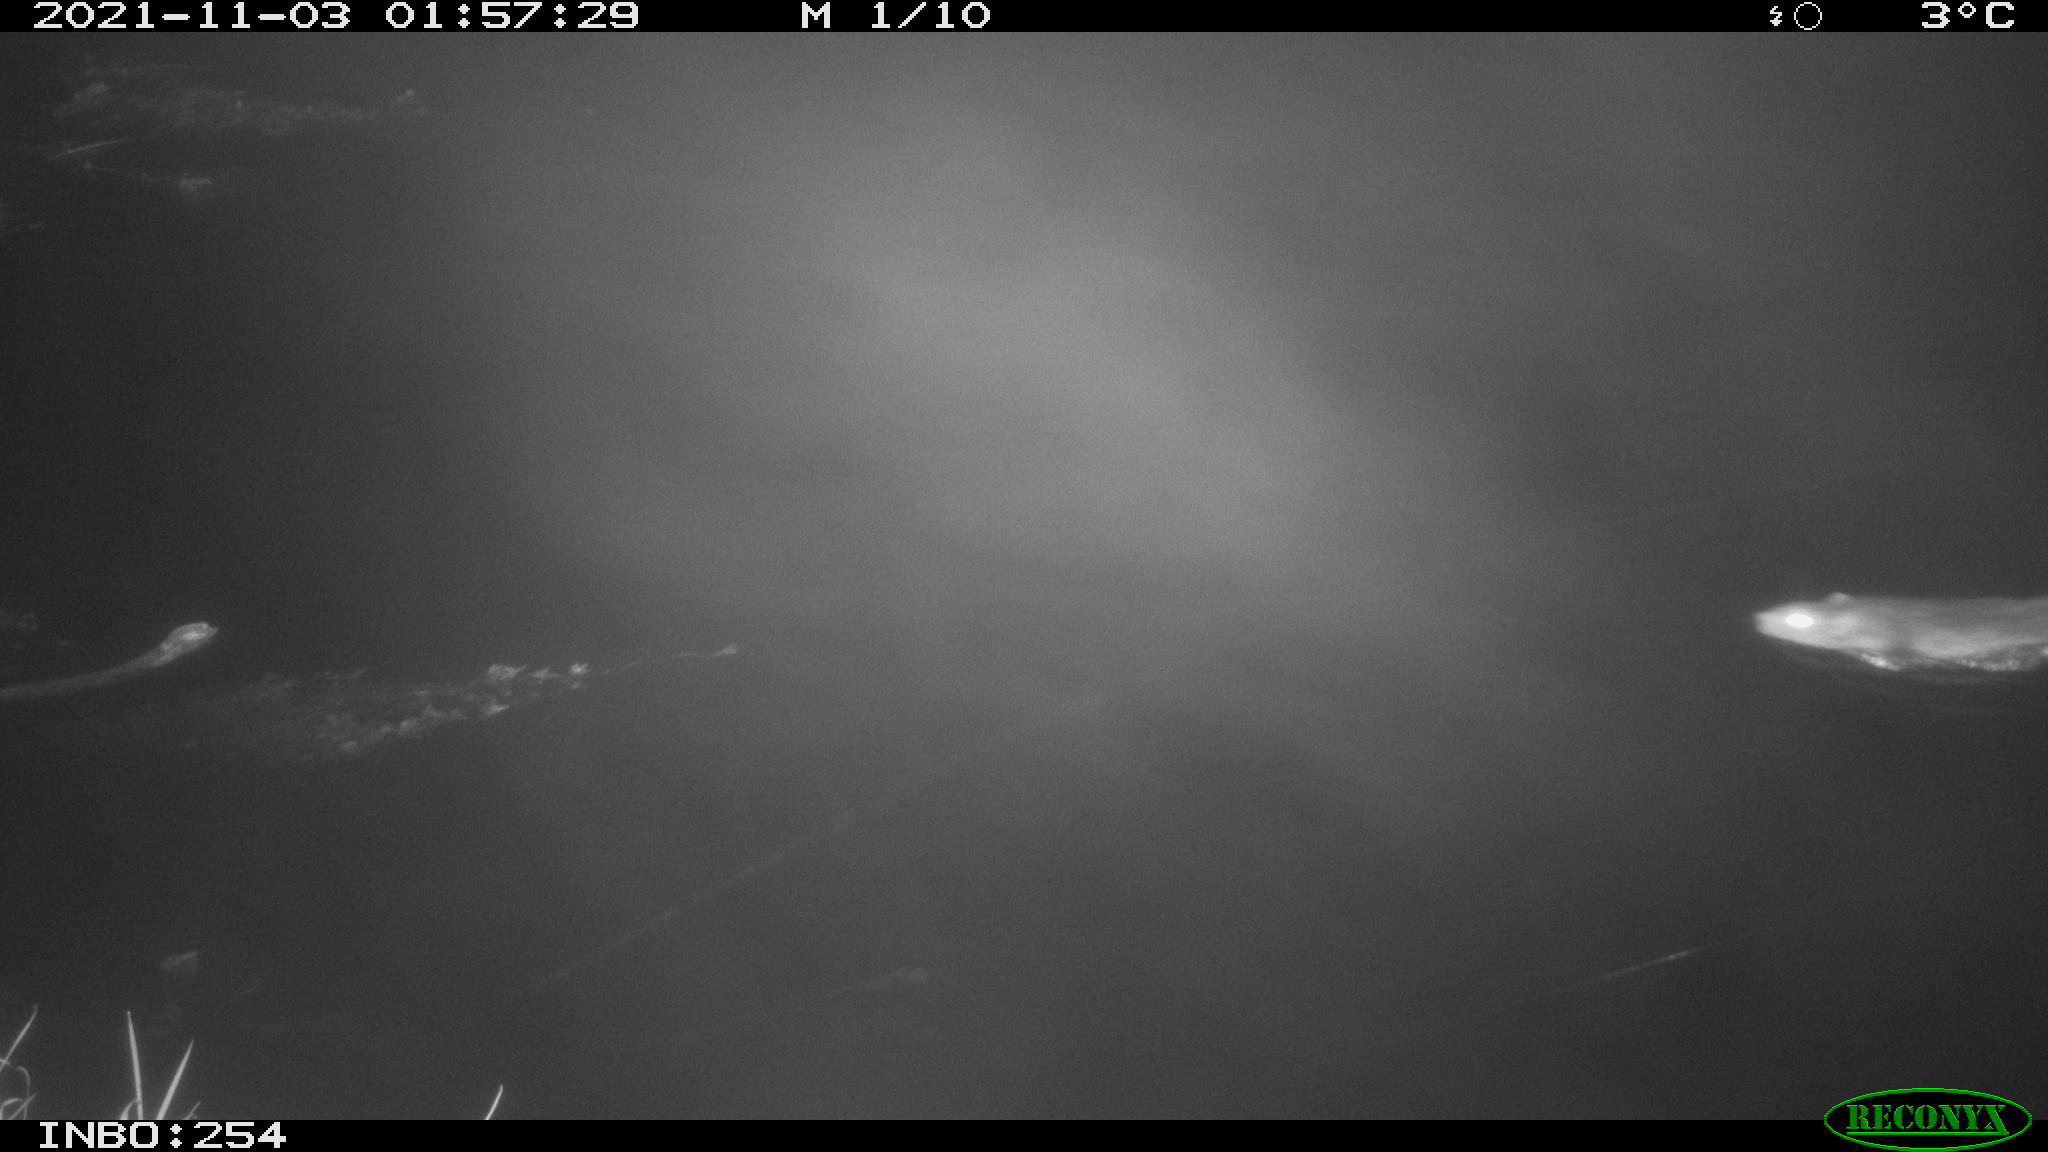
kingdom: Animalia
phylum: Chordata
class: Mammalia
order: Rodentia
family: Muridae
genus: Rattus
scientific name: Rattus norvegicus
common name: Brown rat
